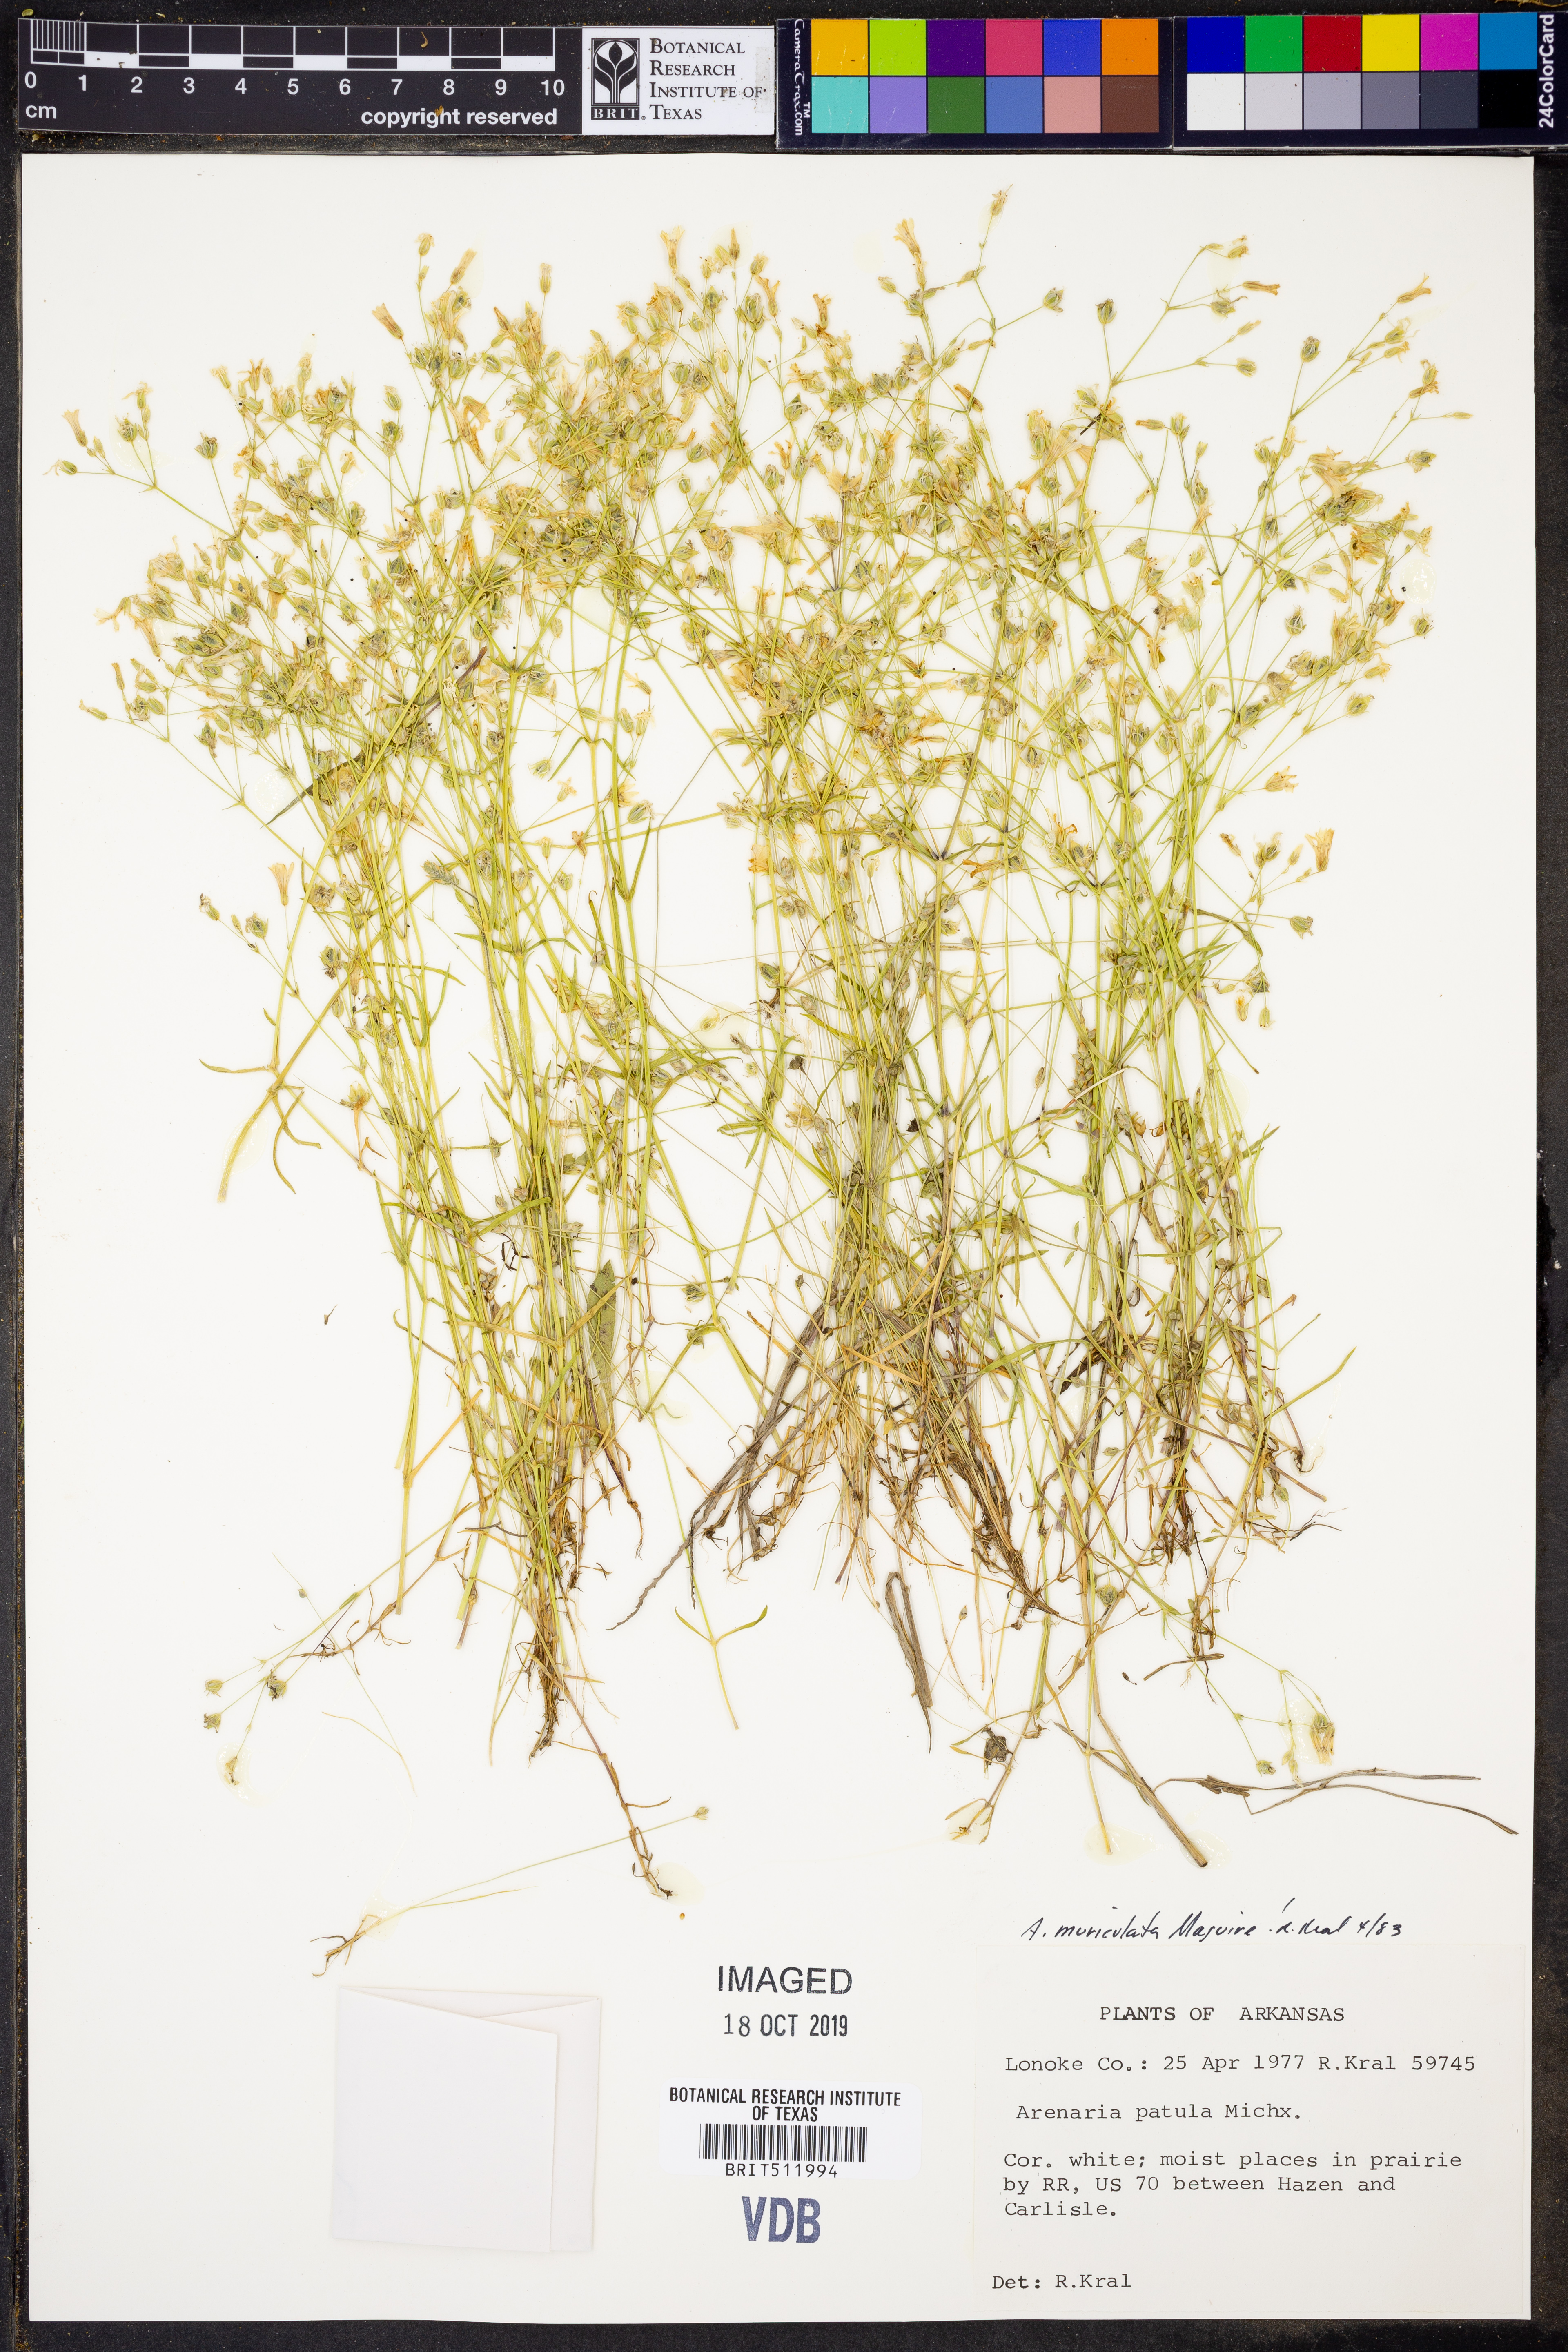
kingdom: Plantae
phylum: Tracheophyta
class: Magnoliopsida
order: Caryophyllales
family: Caryophyllaceae
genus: Mononeuria
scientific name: Mononeuria muscorum
